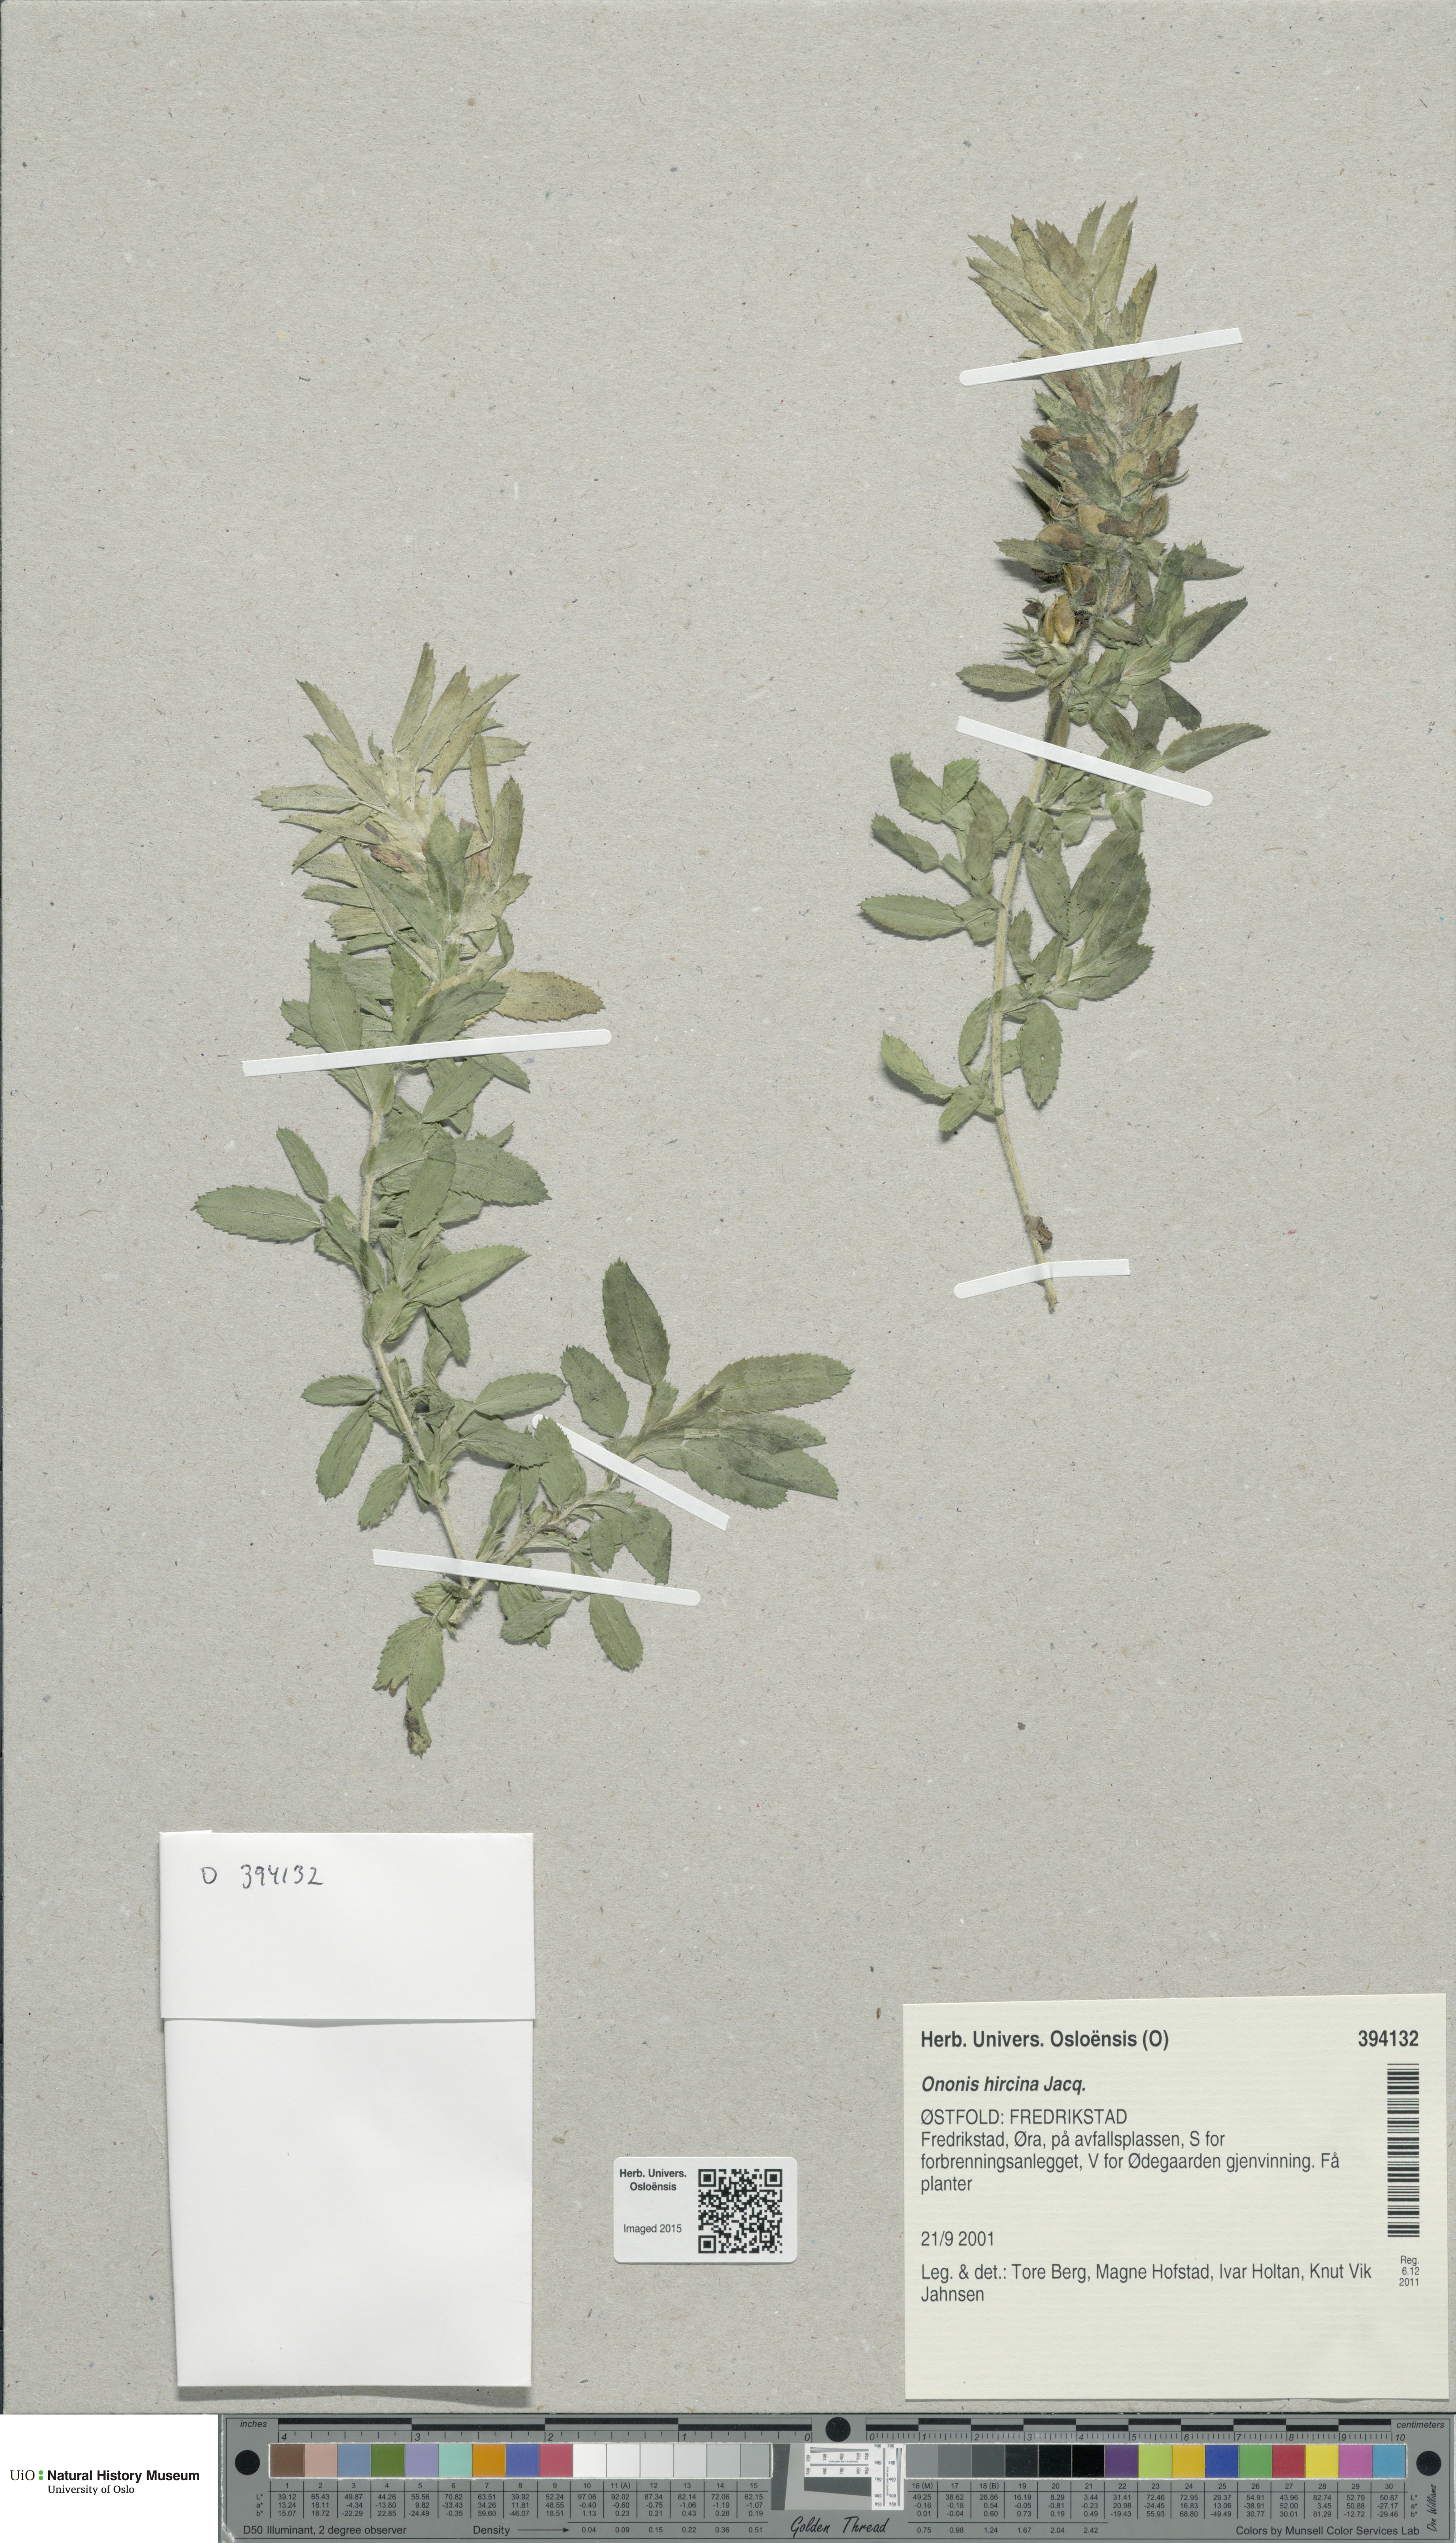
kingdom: Plantae
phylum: Tracheophyta
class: Magnoliopsida
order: Fabales
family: Fabaceae
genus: Ononis
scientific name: Ononis arvensis
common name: Field restharrow
